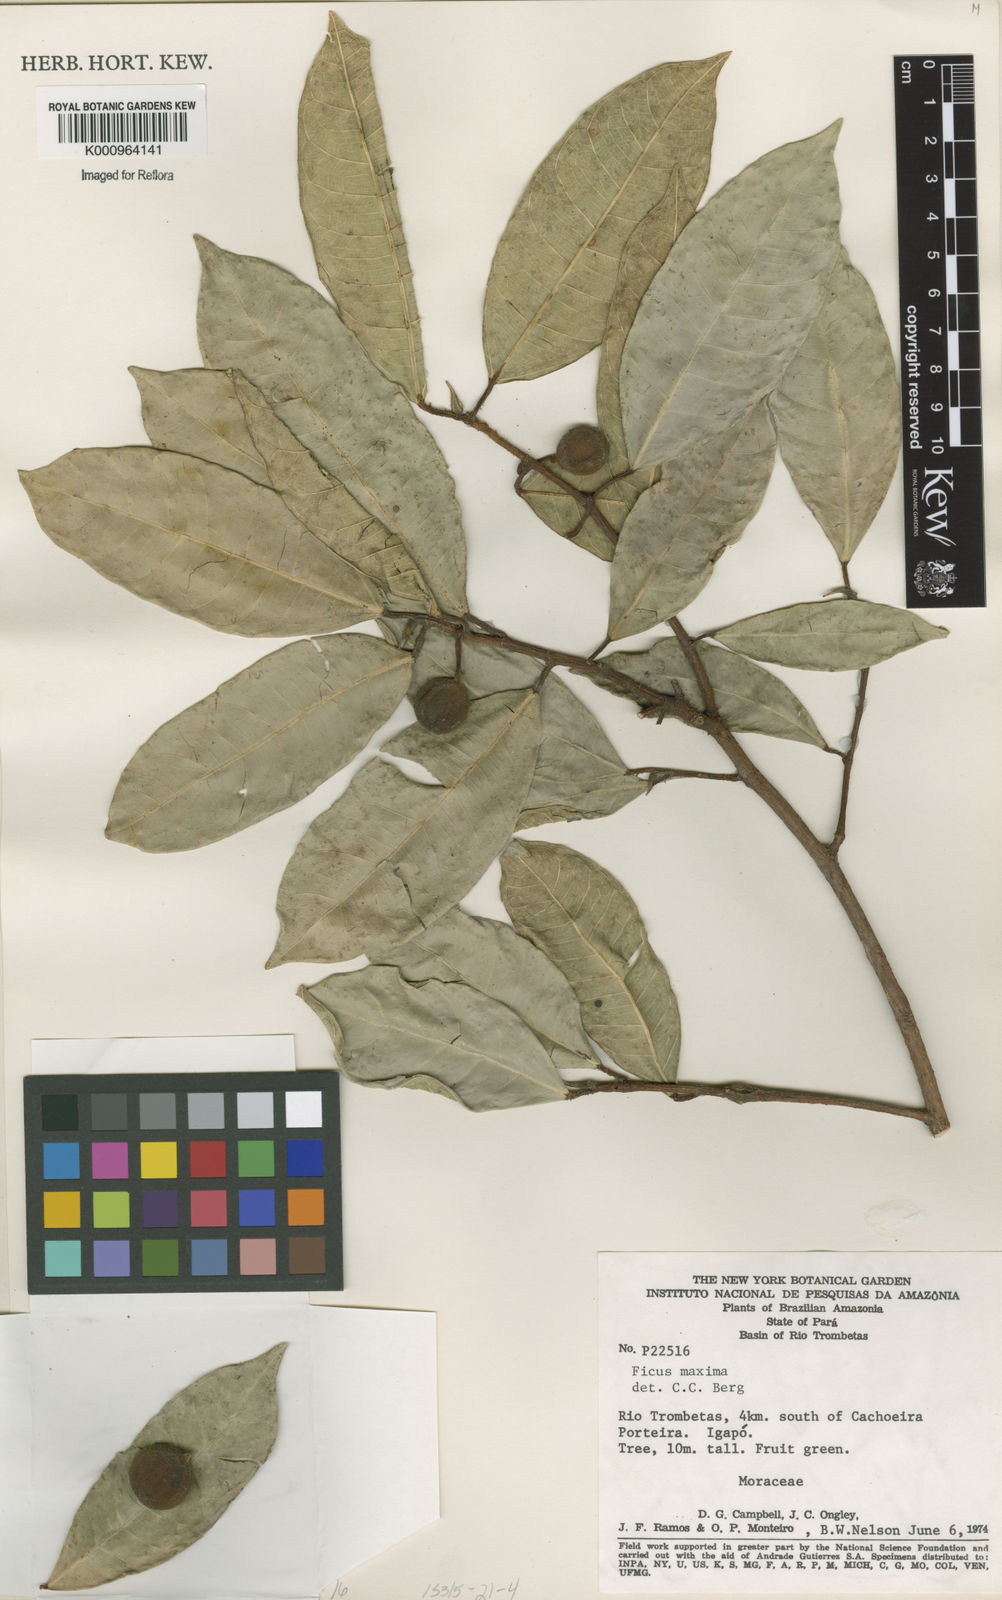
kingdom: Plantae
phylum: Tracheophyta
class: Magnoliopsida
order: Rosales
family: Moraceae
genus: Ficus
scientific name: Ficus maxima
